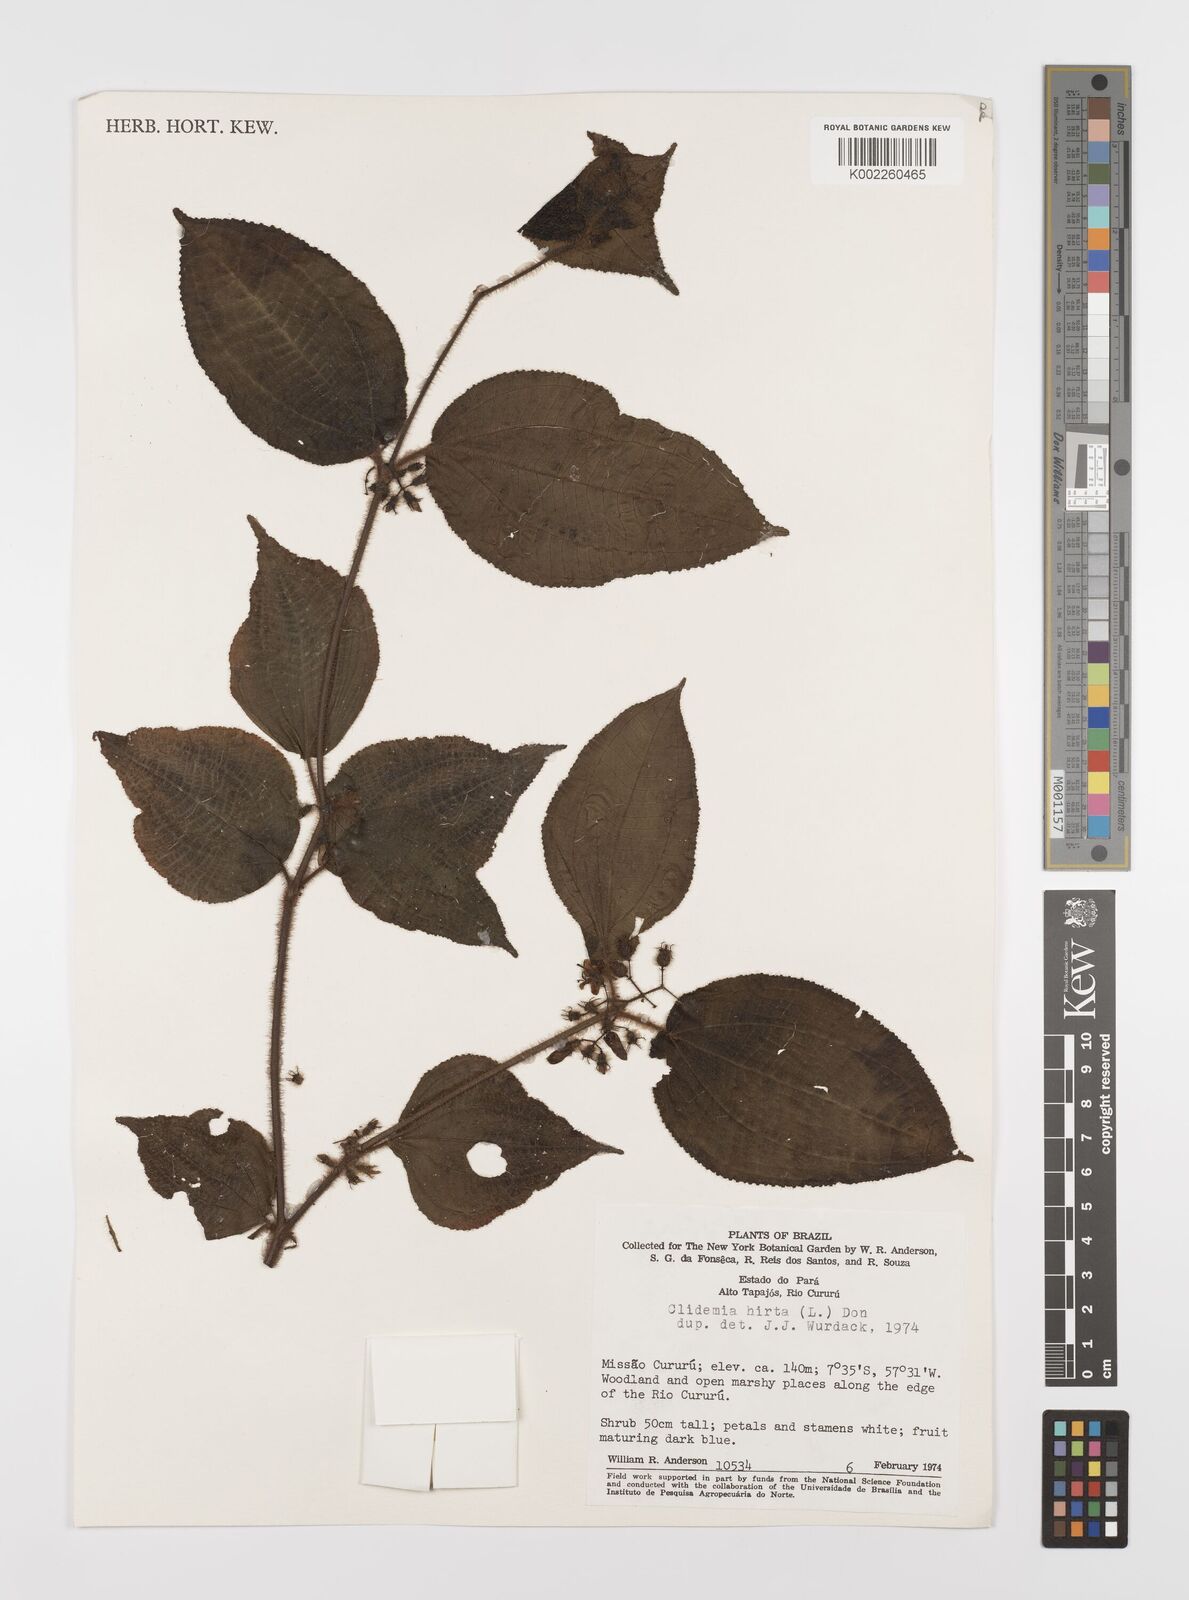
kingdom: Plantae
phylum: Tracheophyta
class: Magnoliopsida
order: Myrtales
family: Melastomataceae
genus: Miconia
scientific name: Miconia crenata
